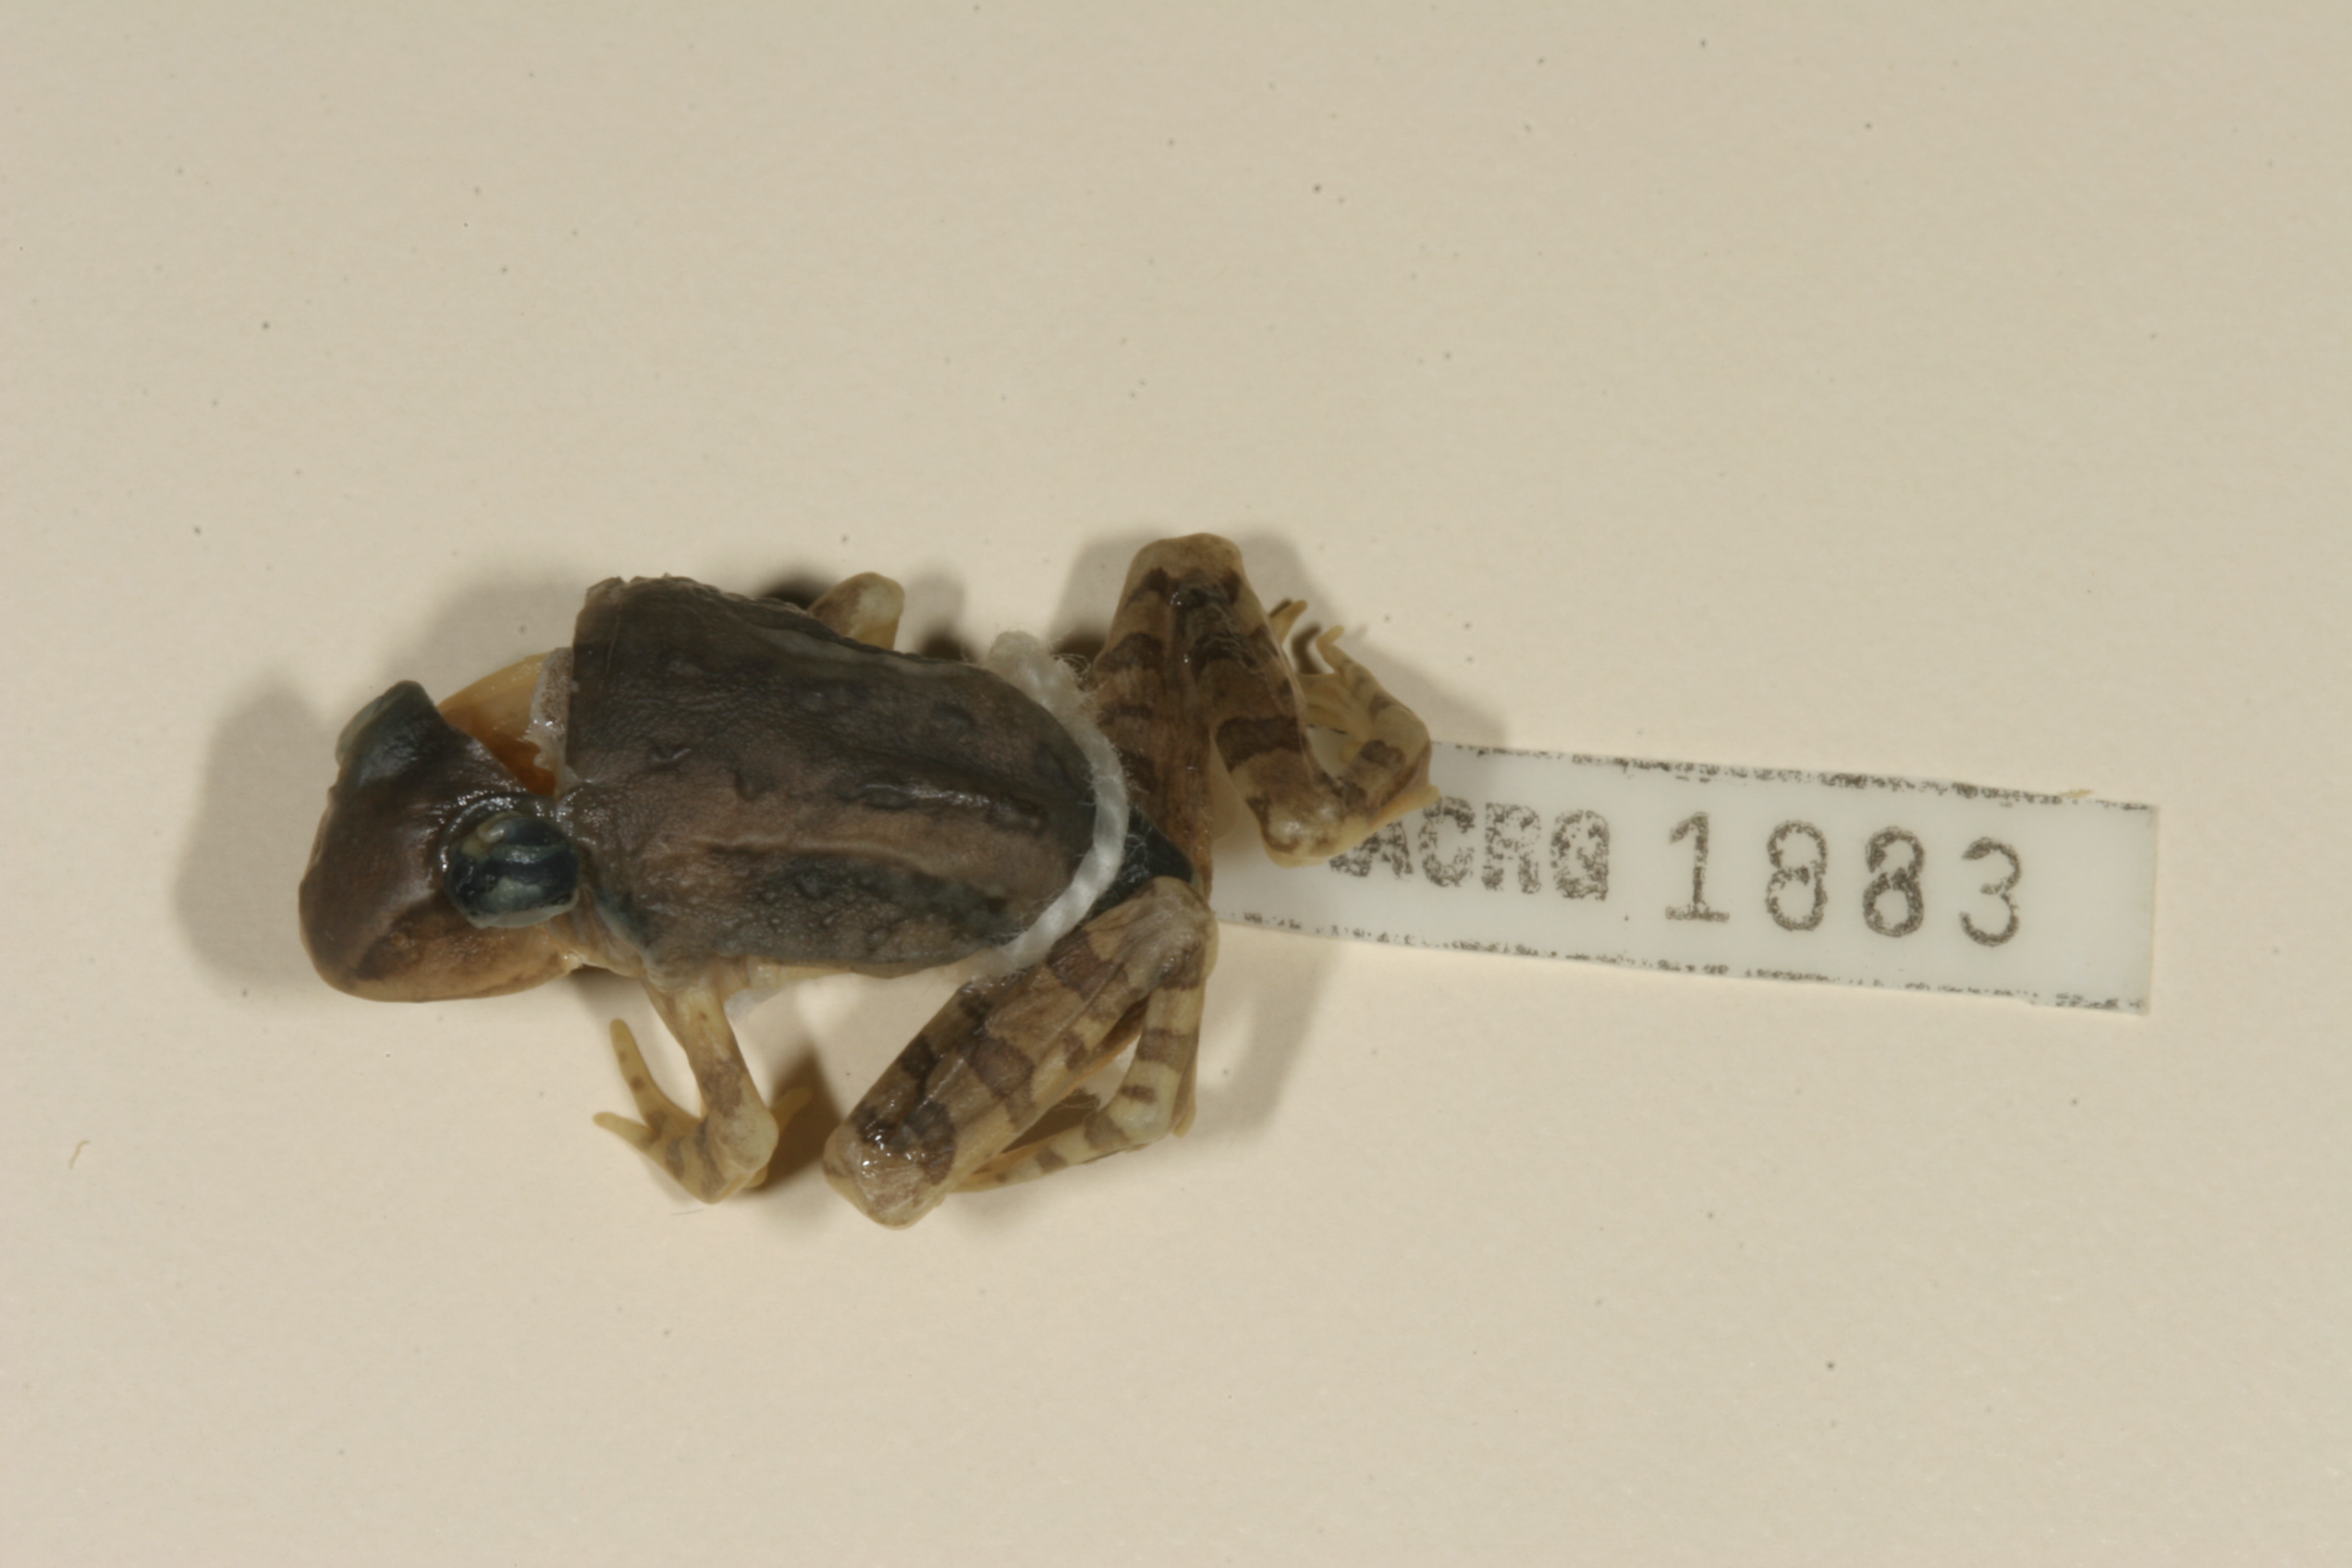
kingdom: Animalia
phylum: Chordata
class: Amphibia
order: Anura
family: Ptychadenidae
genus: Hildebrandtia
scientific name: Hildebrandtia ornata
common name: Ornate frog
